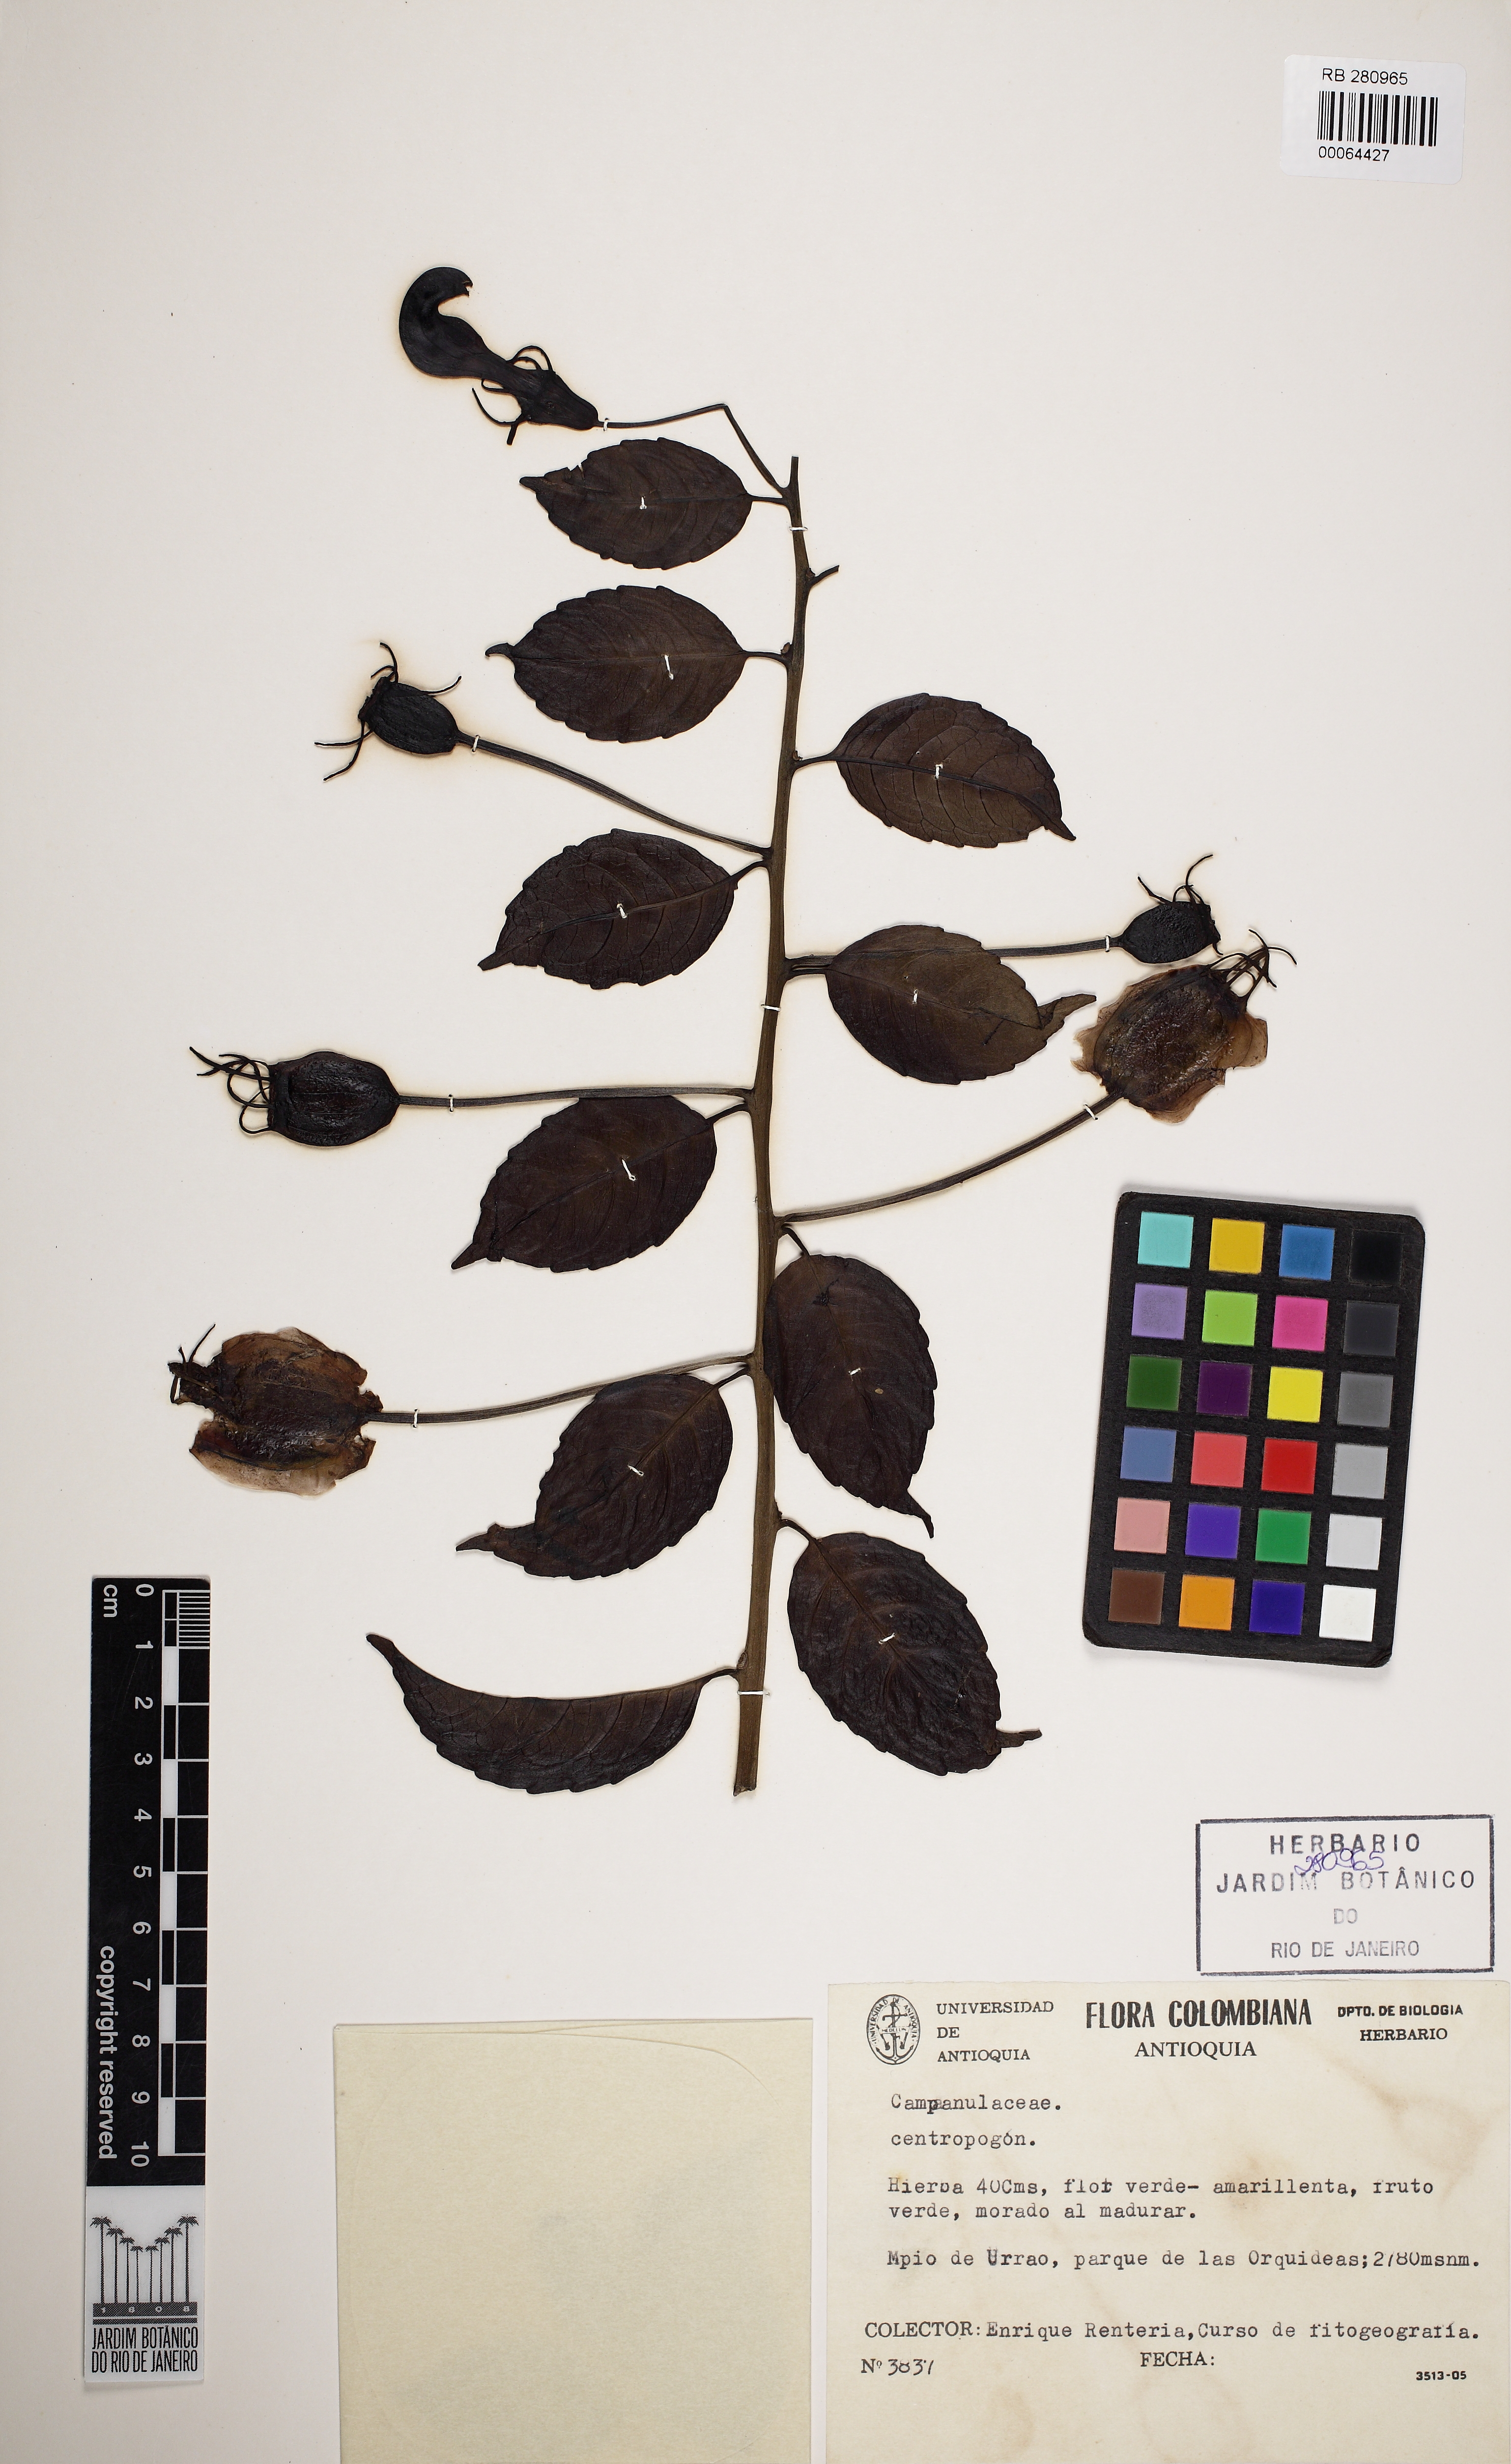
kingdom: Plantae
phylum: Tracheophyta
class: Magnoliopsida
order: Asterales
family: Campanulaceae
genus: Centropogon
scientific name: Centropogon
